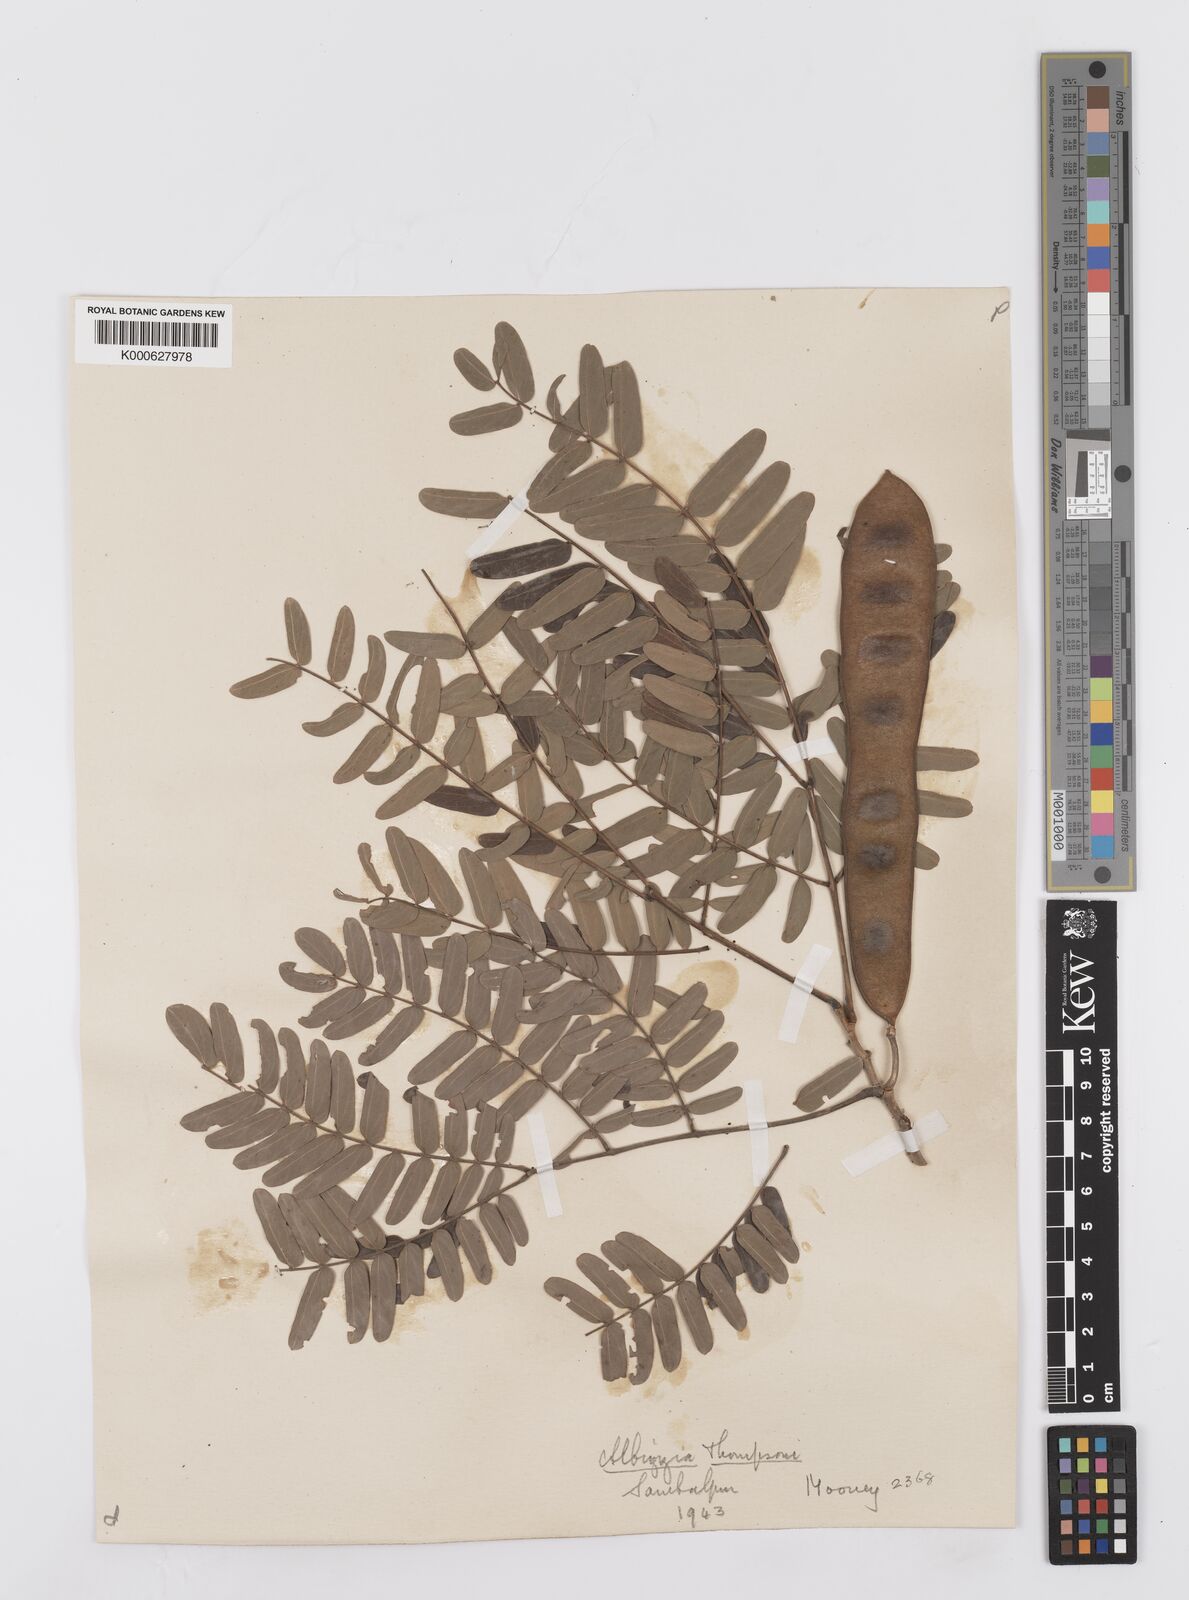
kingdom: Plantae
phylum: Tracheophyta
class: Magnoliopsida
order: Fabales
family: Fabaceae
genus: Albizia
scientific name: Albizia thompsonii
